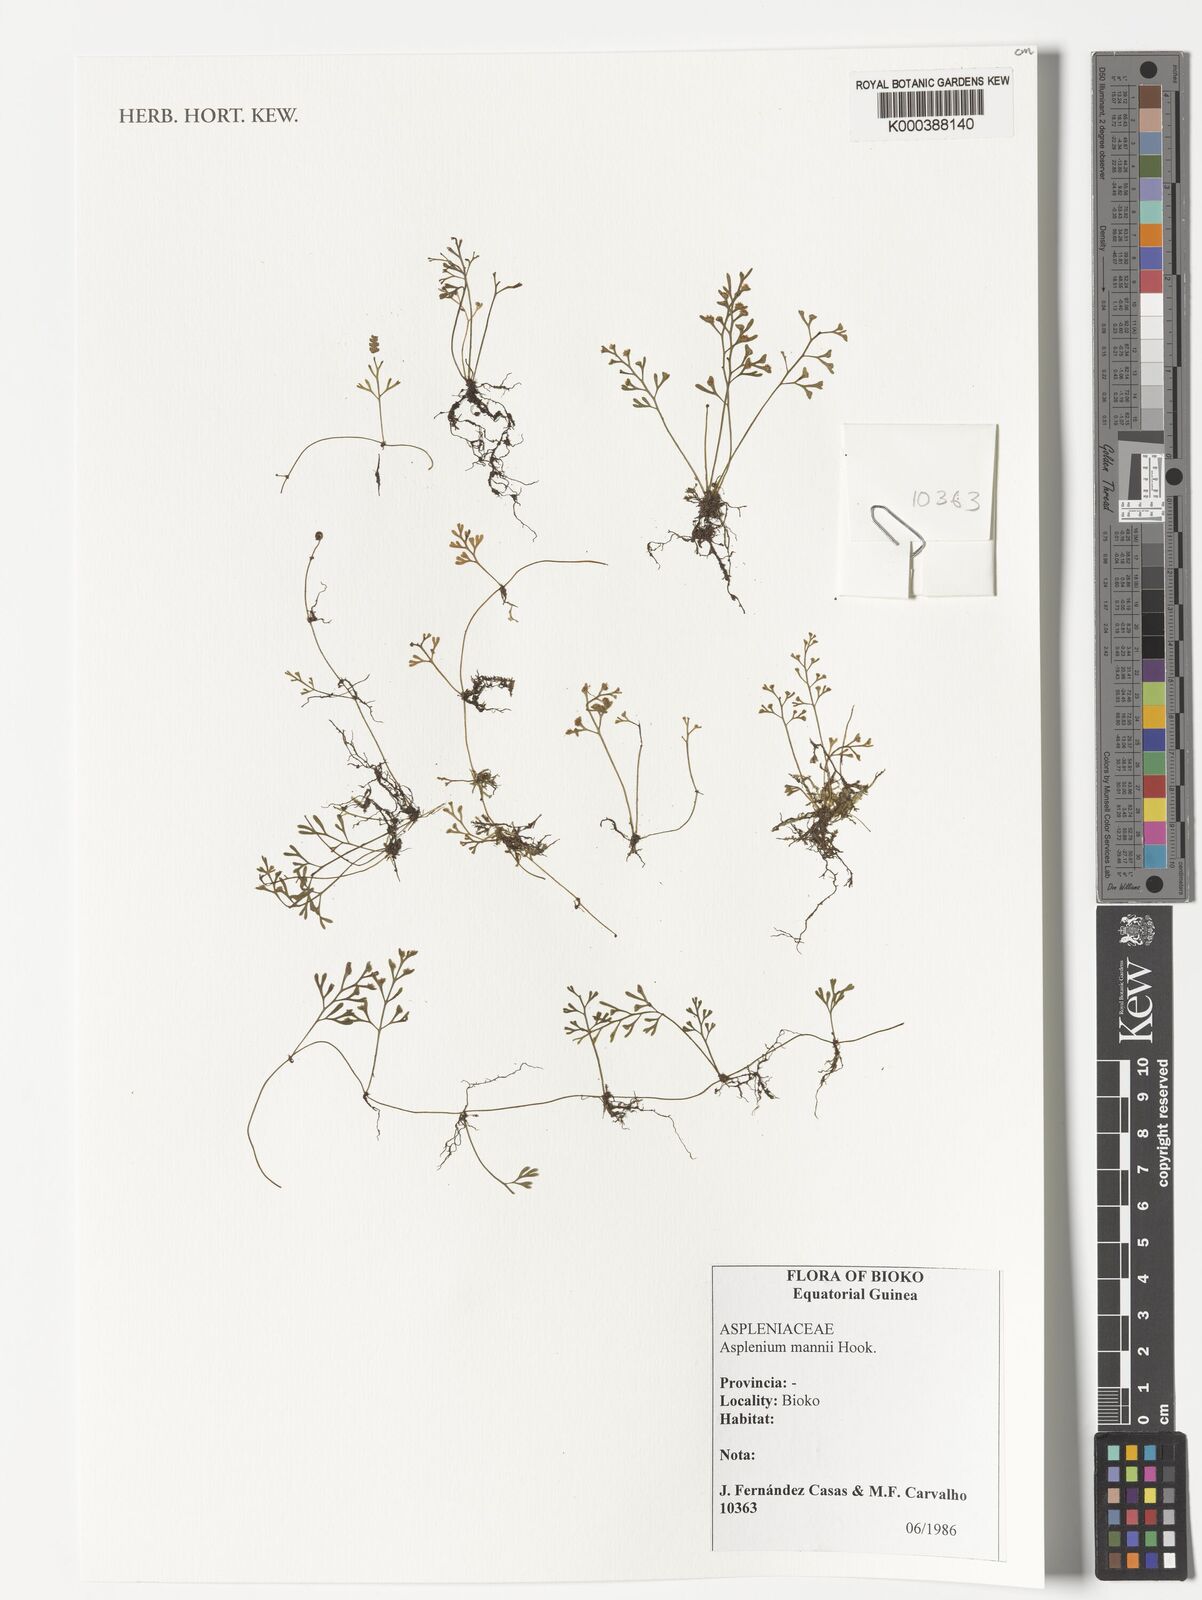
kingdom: Plantae
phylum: Tracheophyta
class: Polypodiopsida
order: Polypodiales
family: Aspleniaceae
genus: Asplenium
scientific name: Asplenium mannii
